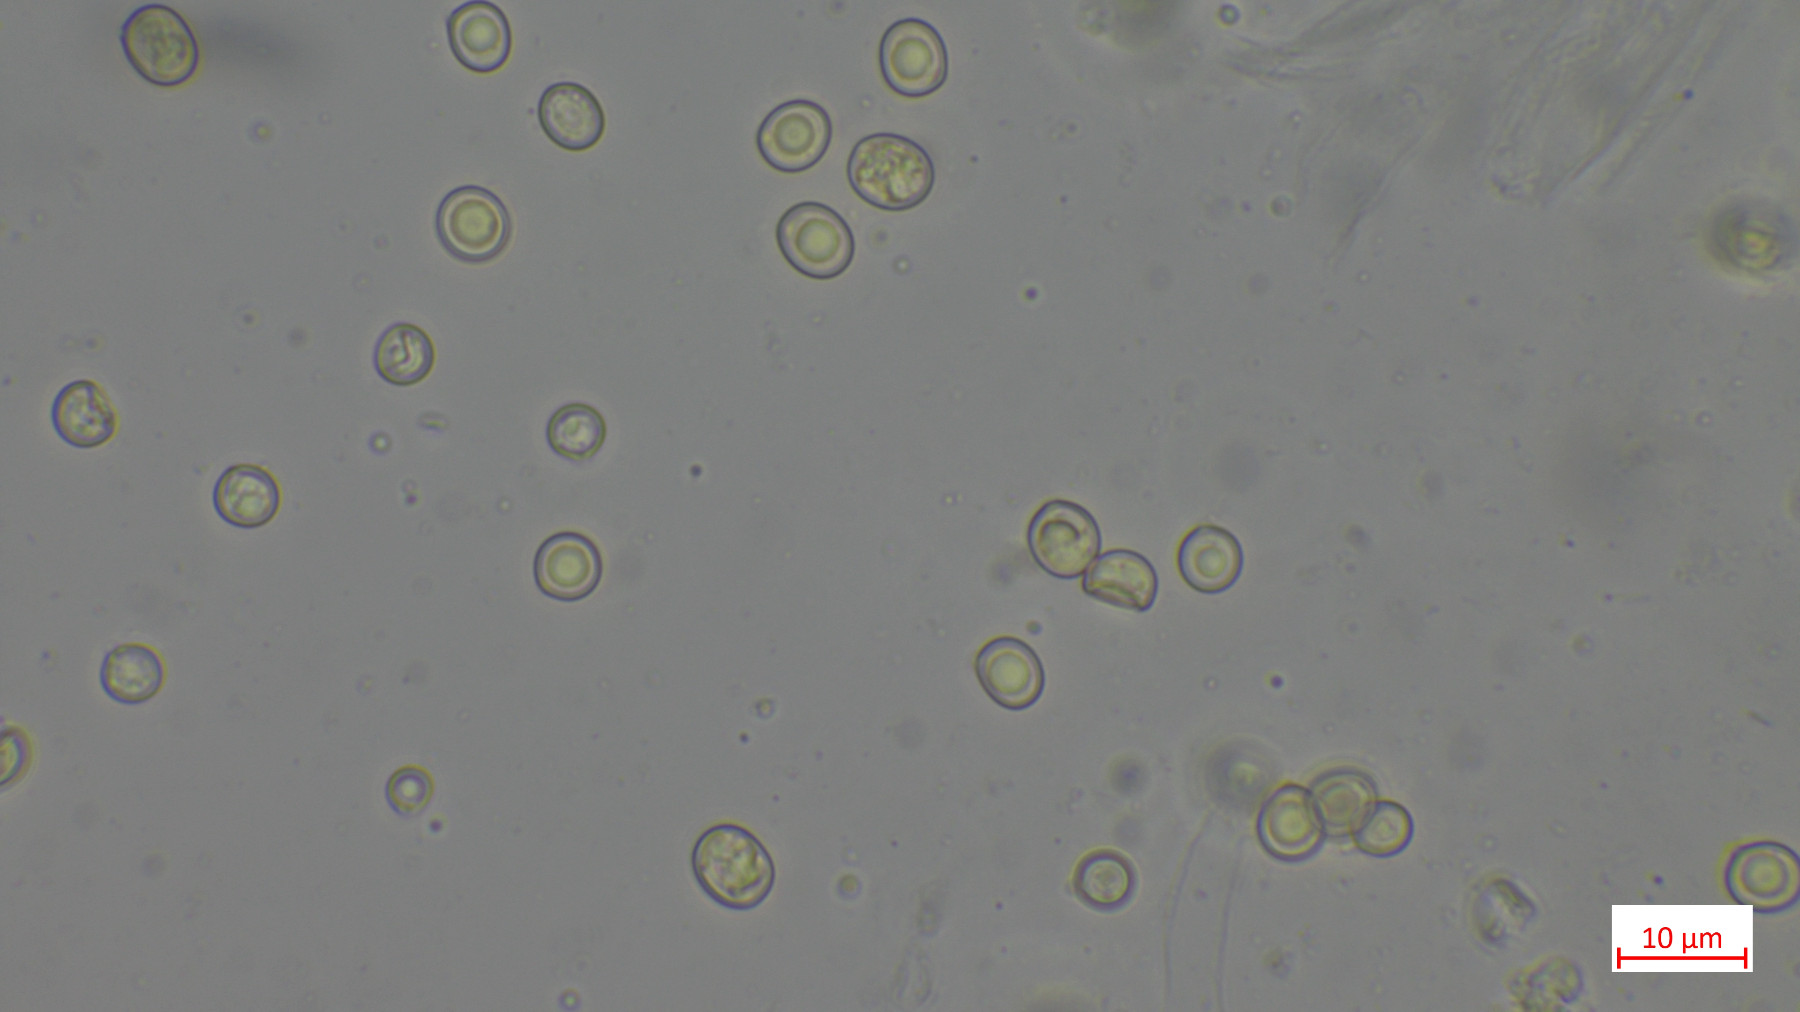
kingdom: Fungi
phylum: Basidiomycota
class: Agaricomycetes
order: Agaricales
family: Pluteaceae
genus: Pluteus
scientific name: Pluteus ephebeus
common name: Sooty shield
